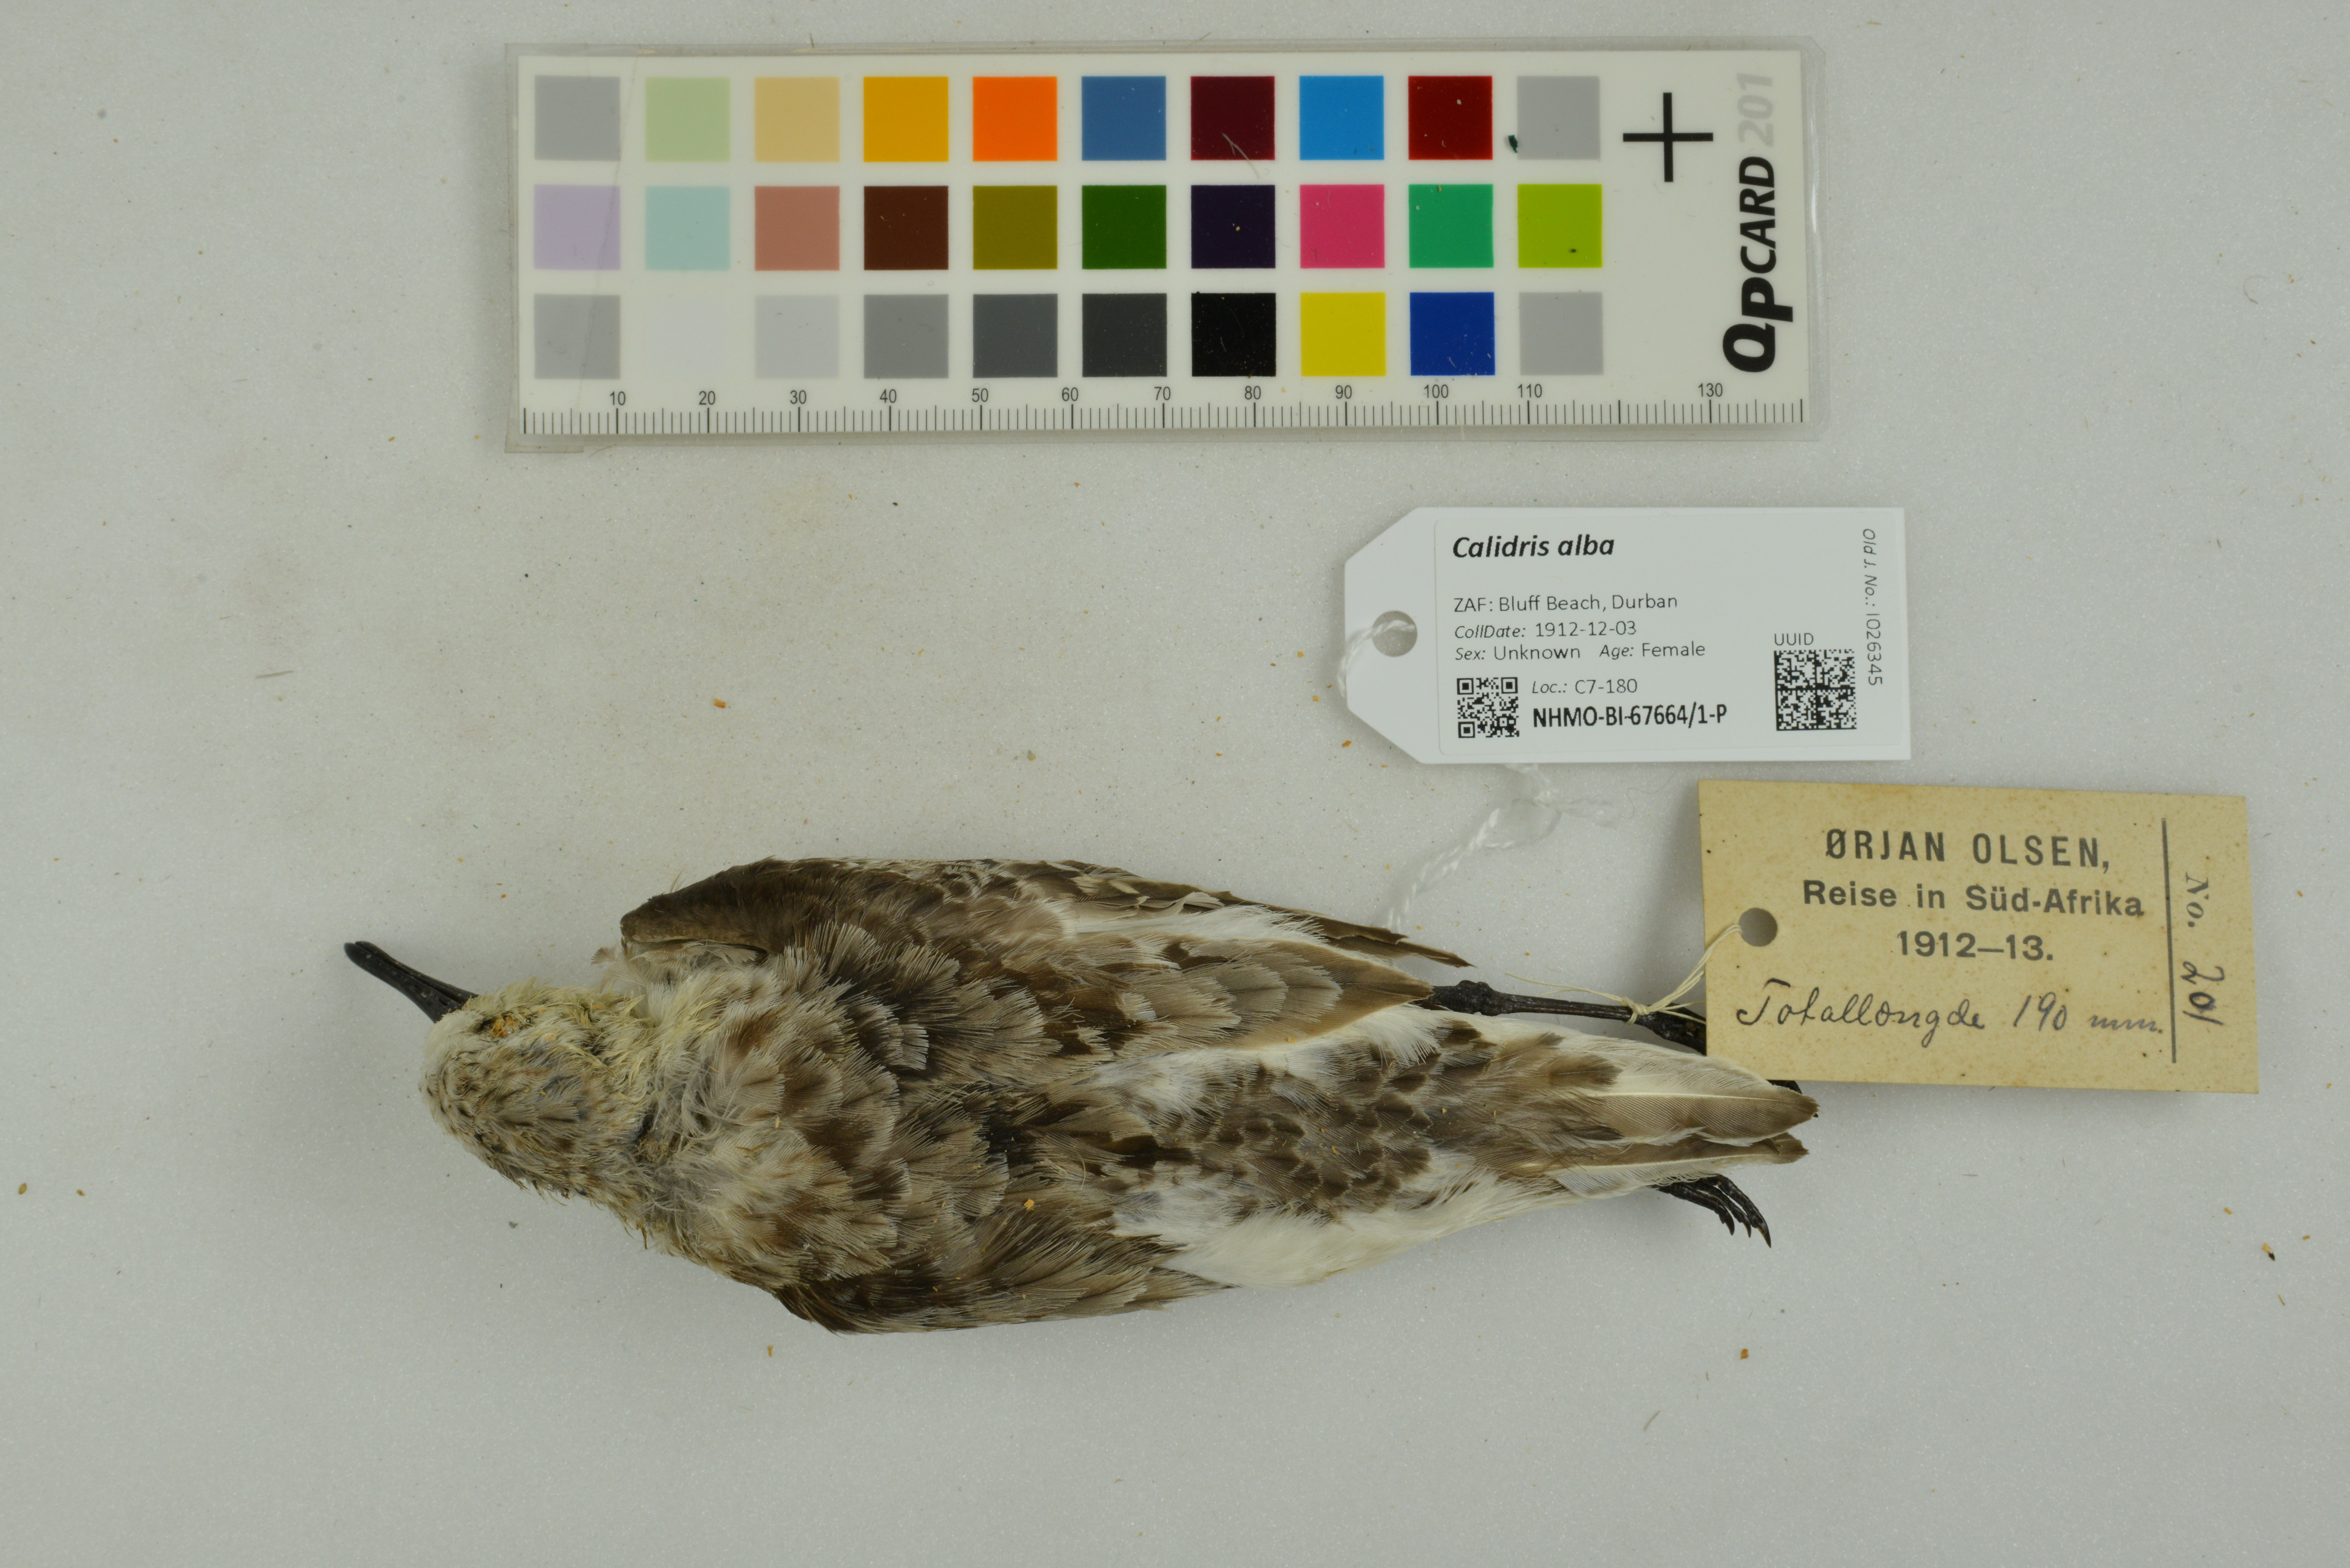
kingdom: Animalia
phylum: Chordata
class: Aves
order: Charadriiformes
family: Scolopacidae
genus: Calidris
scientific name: Calidris alba
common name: Sanderling
